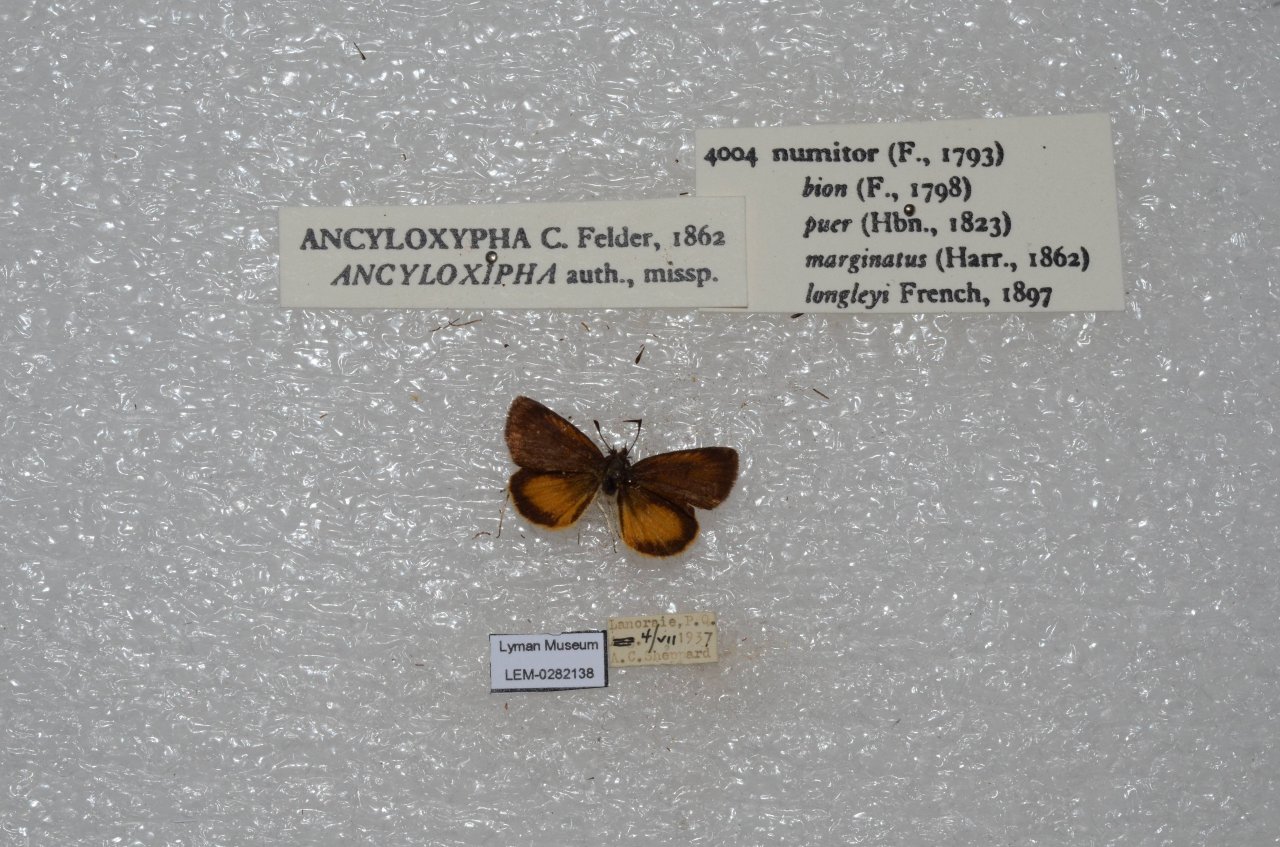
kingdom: Animalia
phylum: Arthropoda
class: Insecta
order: Lepidoptera
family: Hesperiidae
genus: Ancyloxypha
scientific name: Ancyloxypha numitor
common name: Least Skipper
